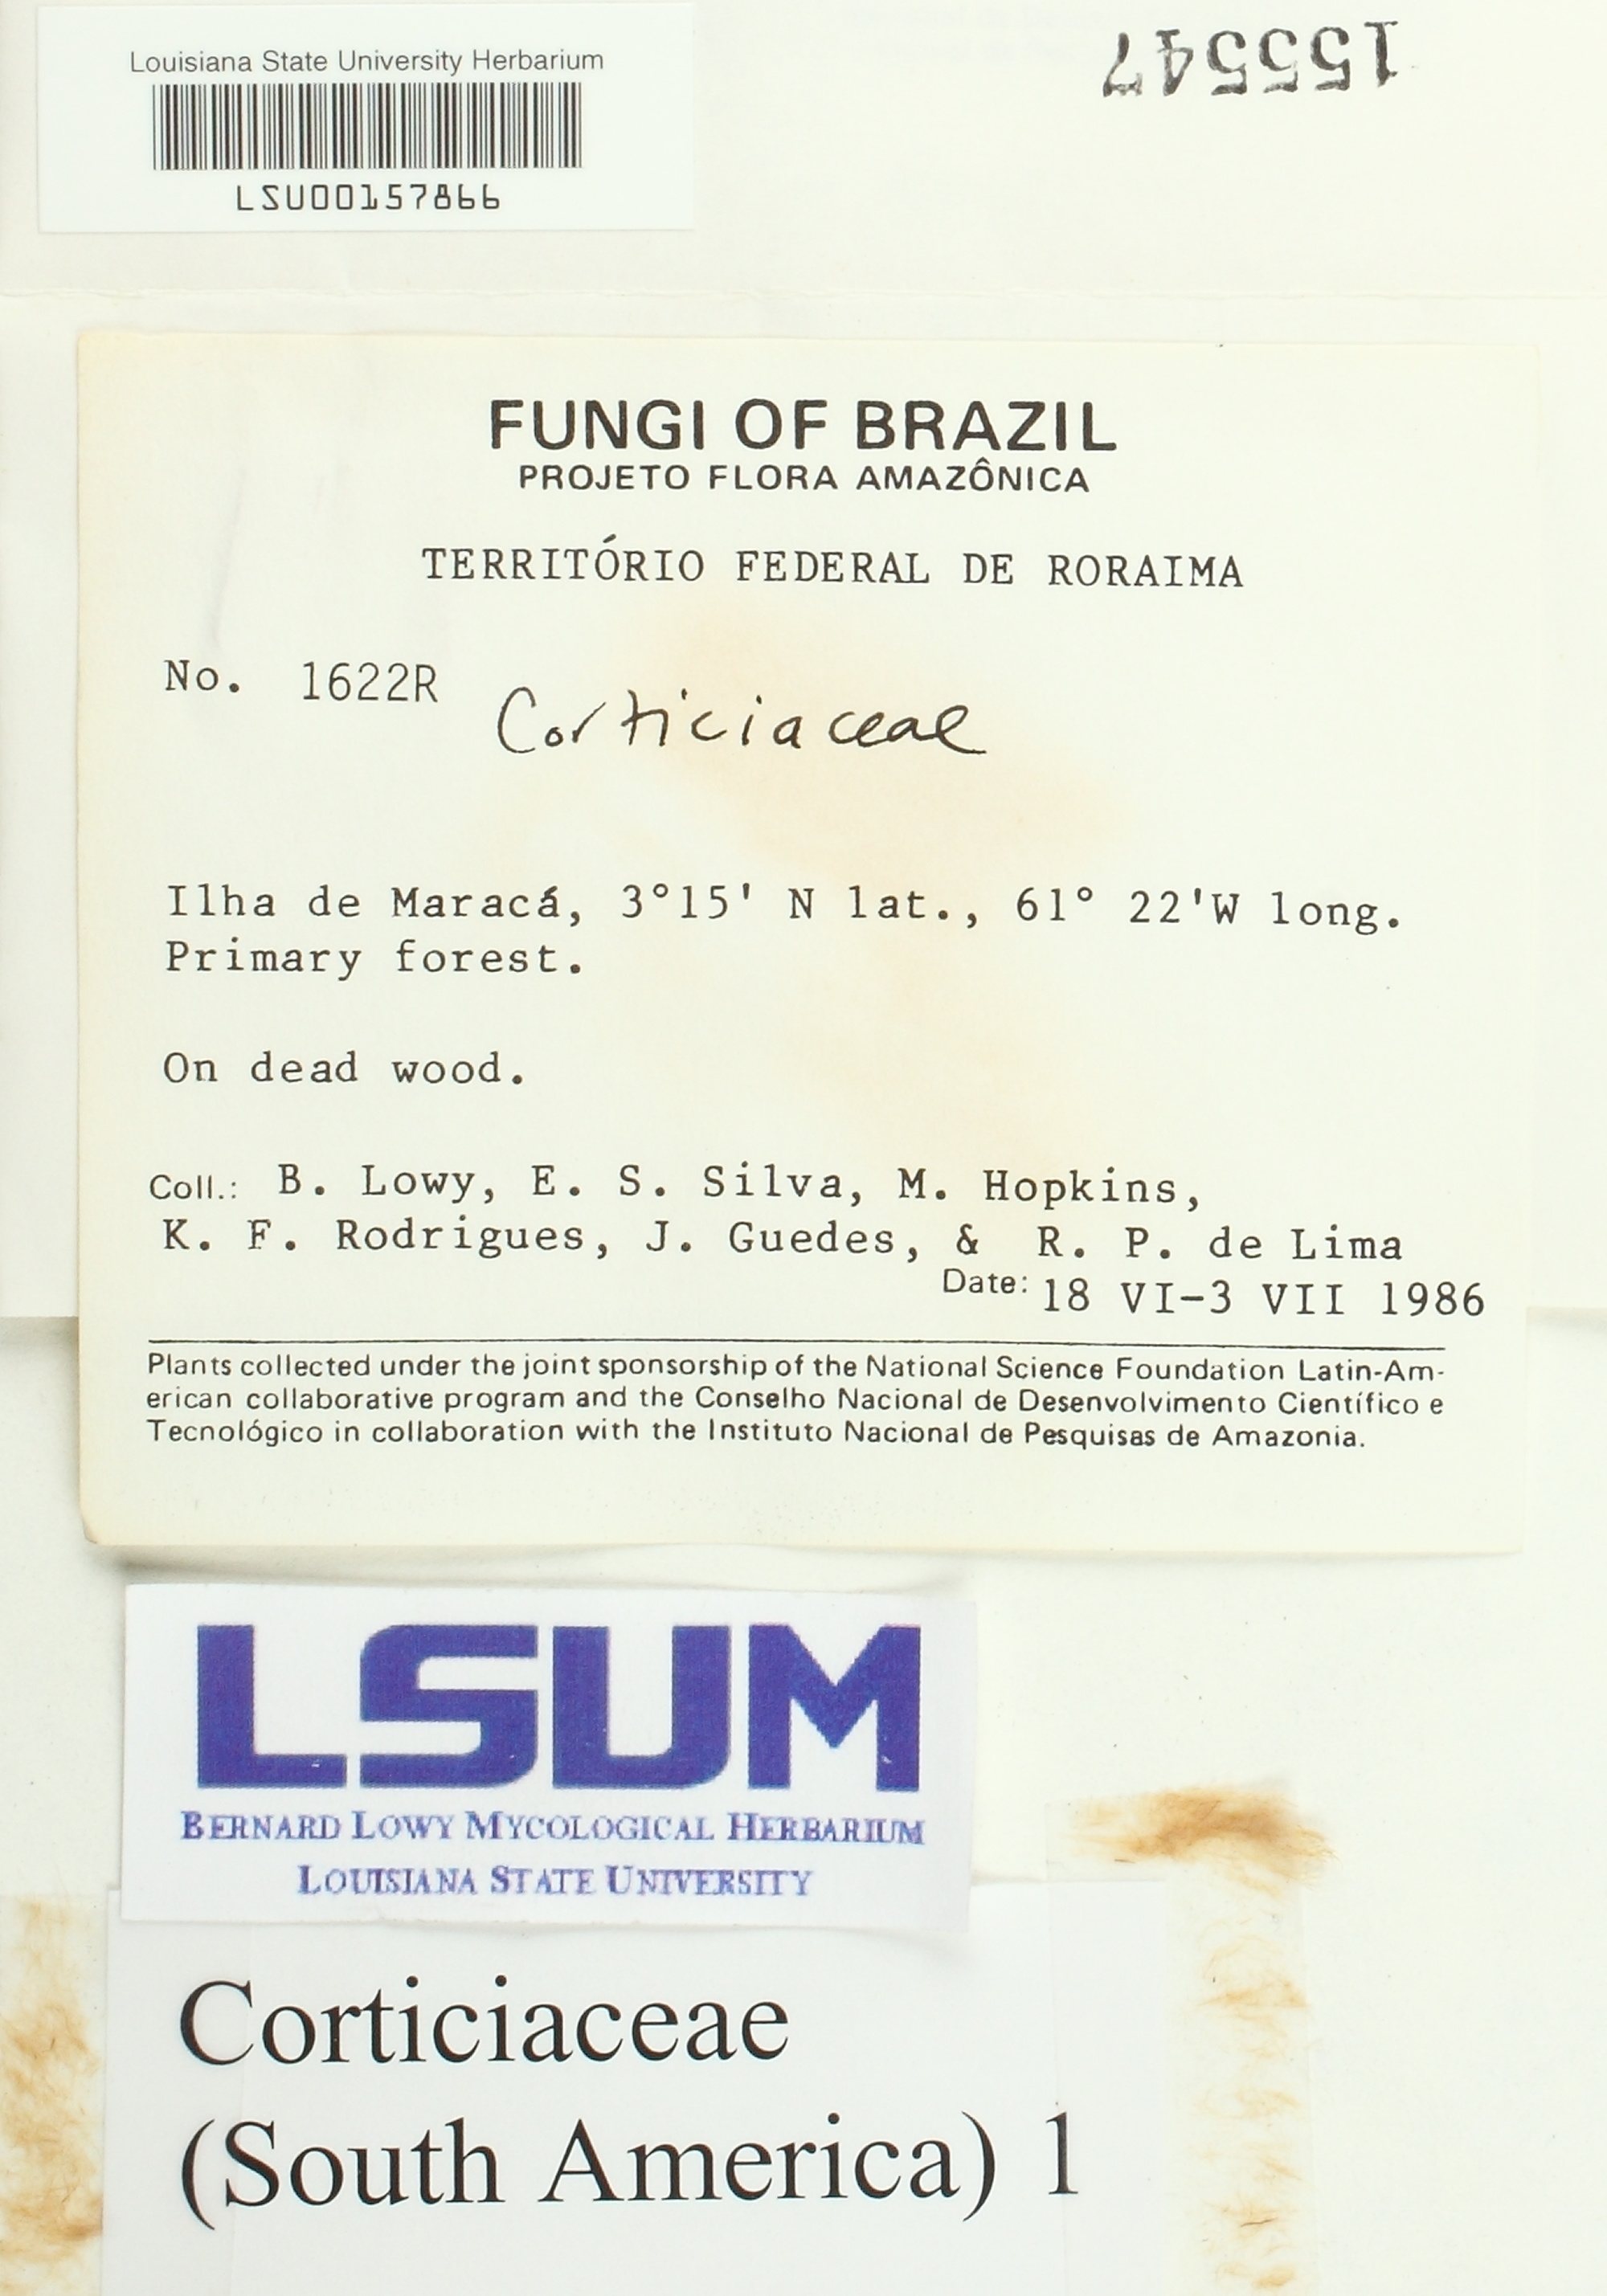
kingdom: Fungi
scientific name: Fungi
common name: Fungi
